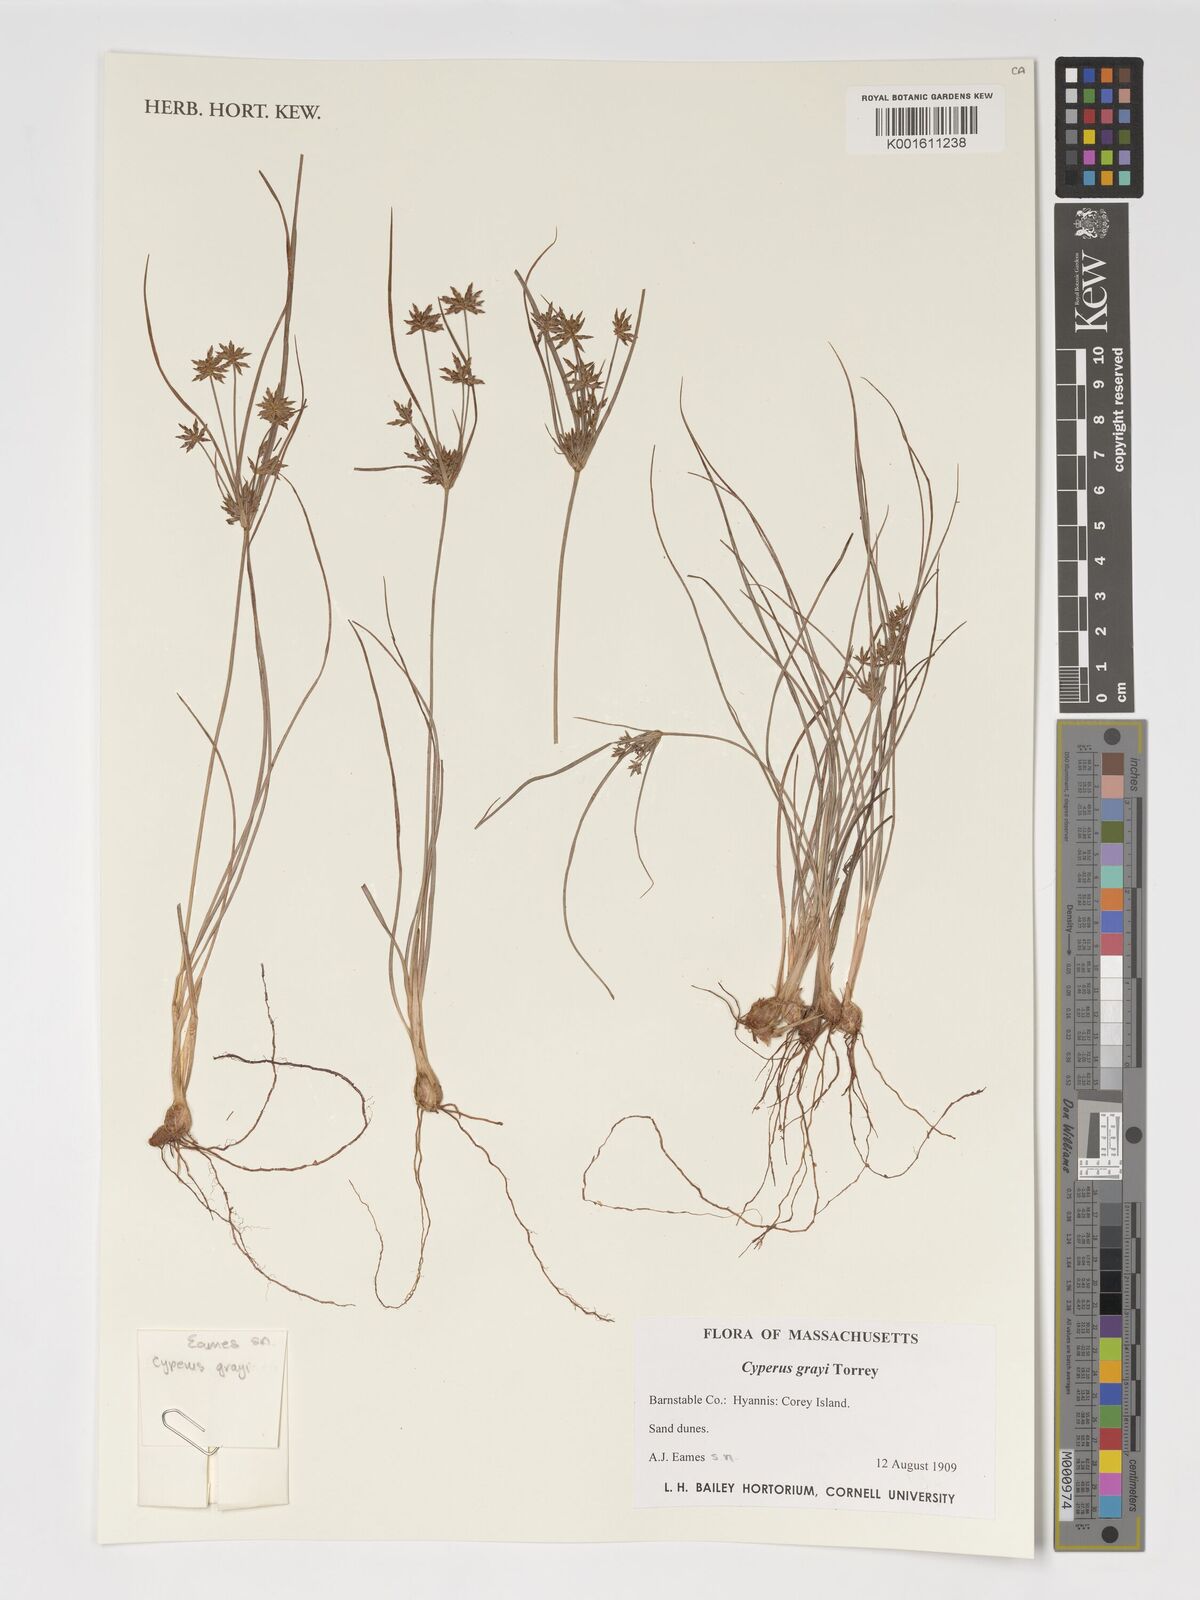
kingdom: Plantae
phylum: Tracheophyta
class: Liliopsida
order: Poales
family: Cyperaceae
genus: Cyperus
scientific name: Cyperus grayi
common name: Gray's flat sedge
